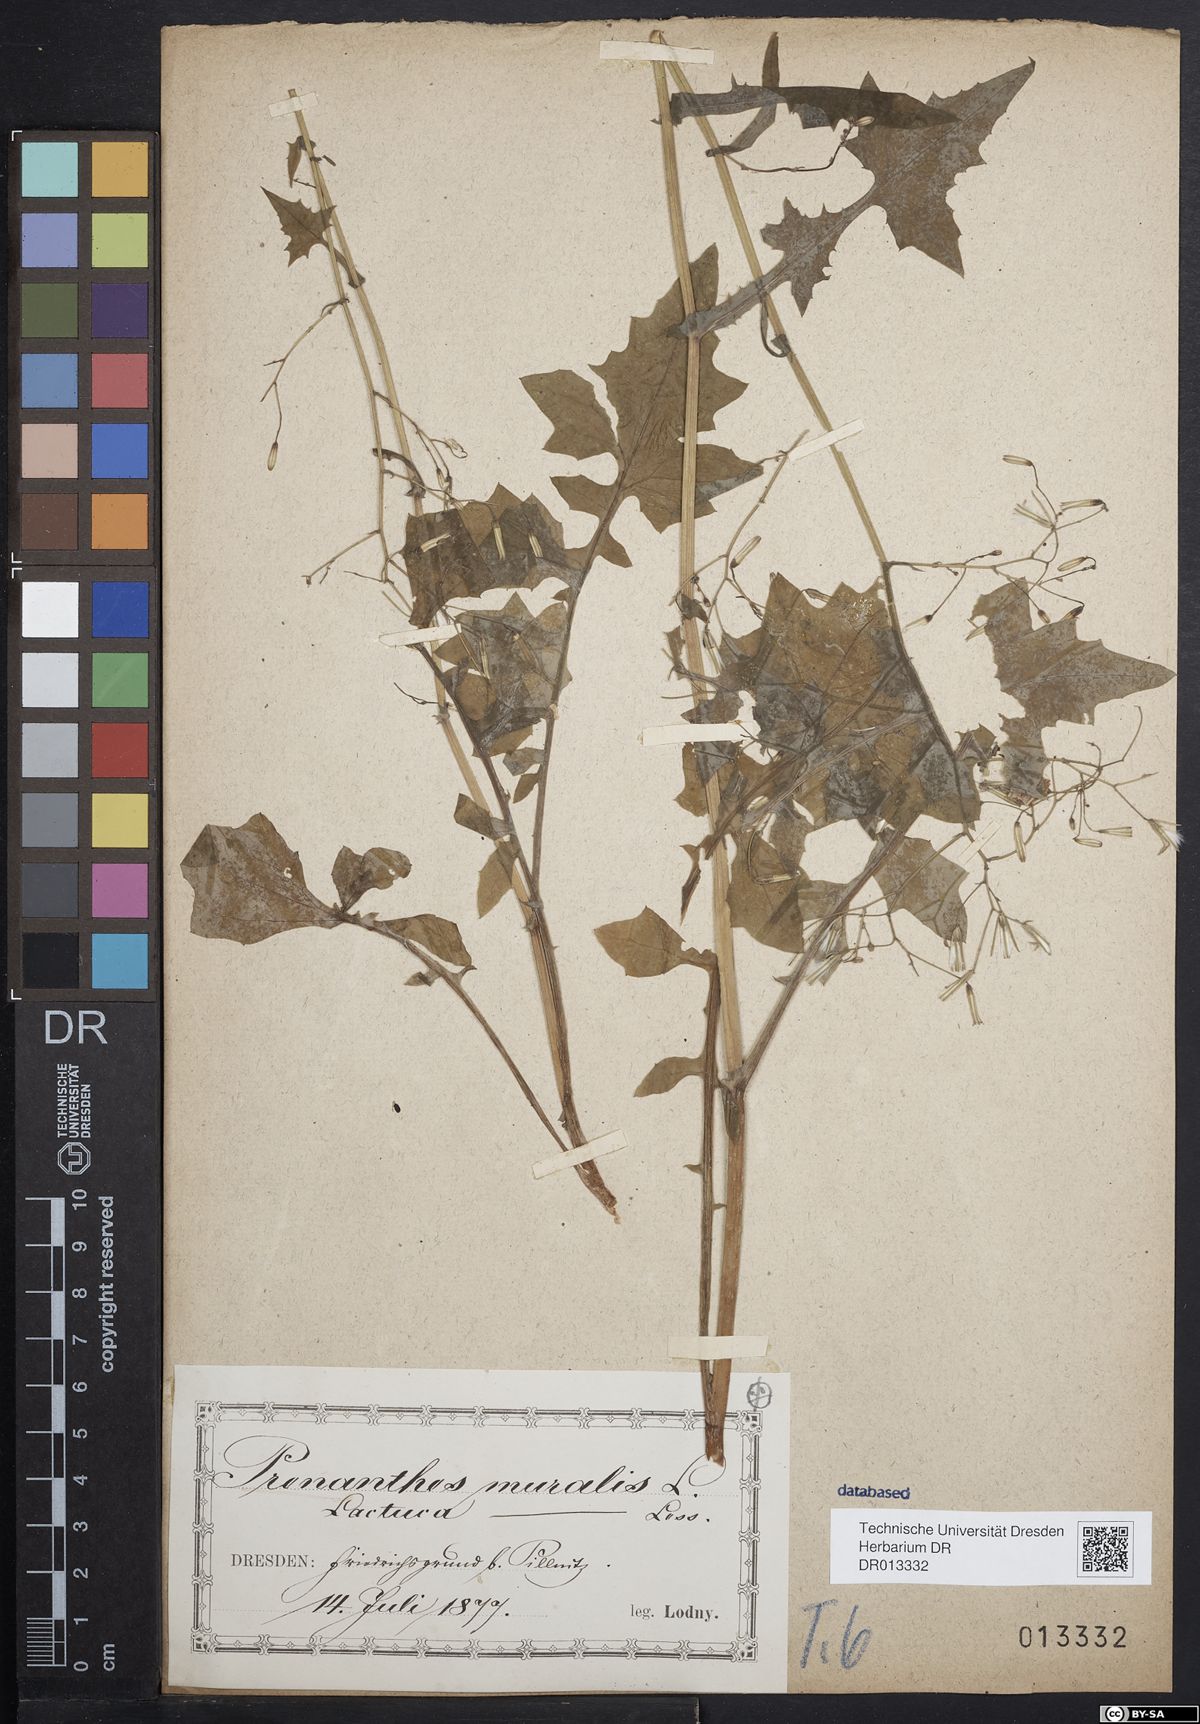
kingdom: Plantae
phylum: Tracheophyta
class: Magnoliopsida
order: Asterales
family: Asteraceae
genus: Mycelis
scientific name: Mycelis muralis
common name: Wall lettuce
